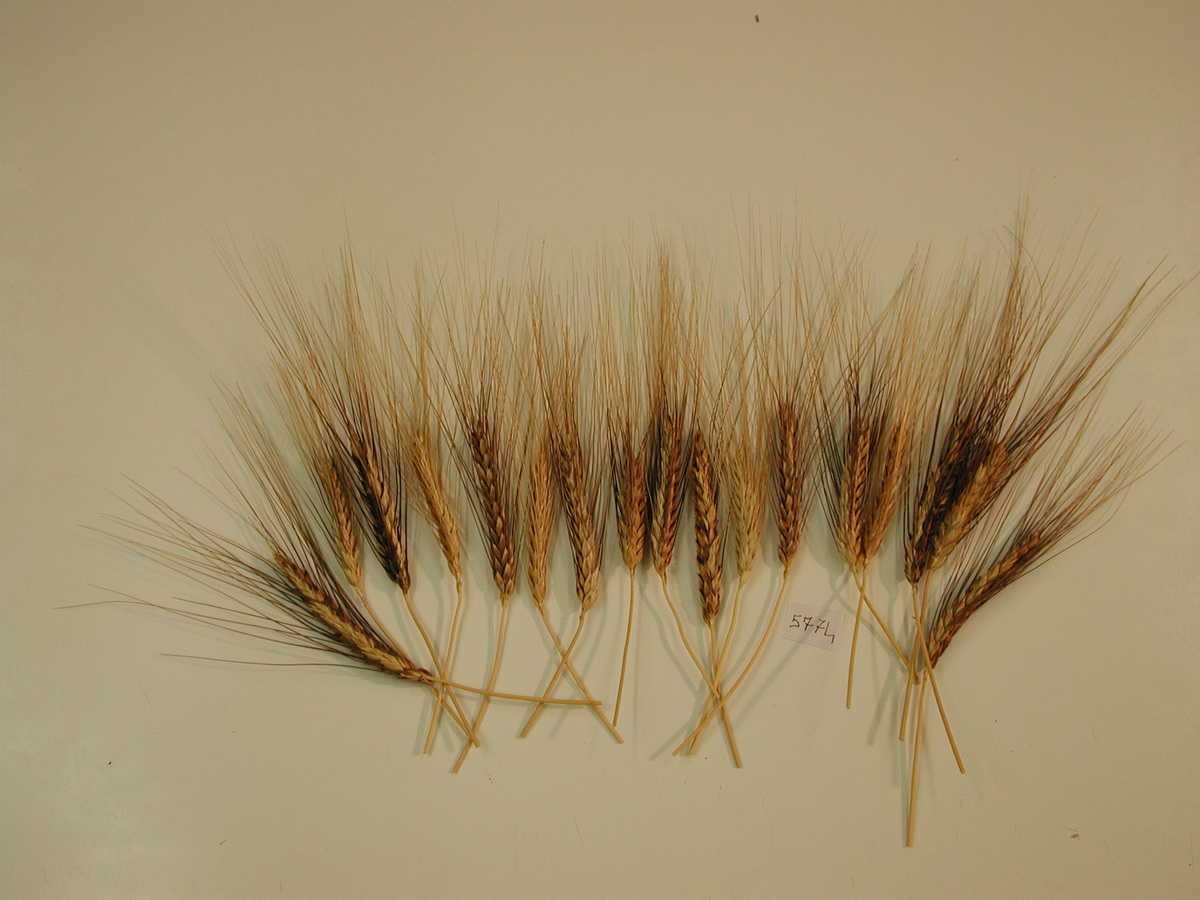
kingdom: Plantae
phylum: Tracheophyta
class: Liliopsida
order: Poales
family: Poaceae
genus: Triticum
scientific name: Triticum turgidum
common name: Wheat
